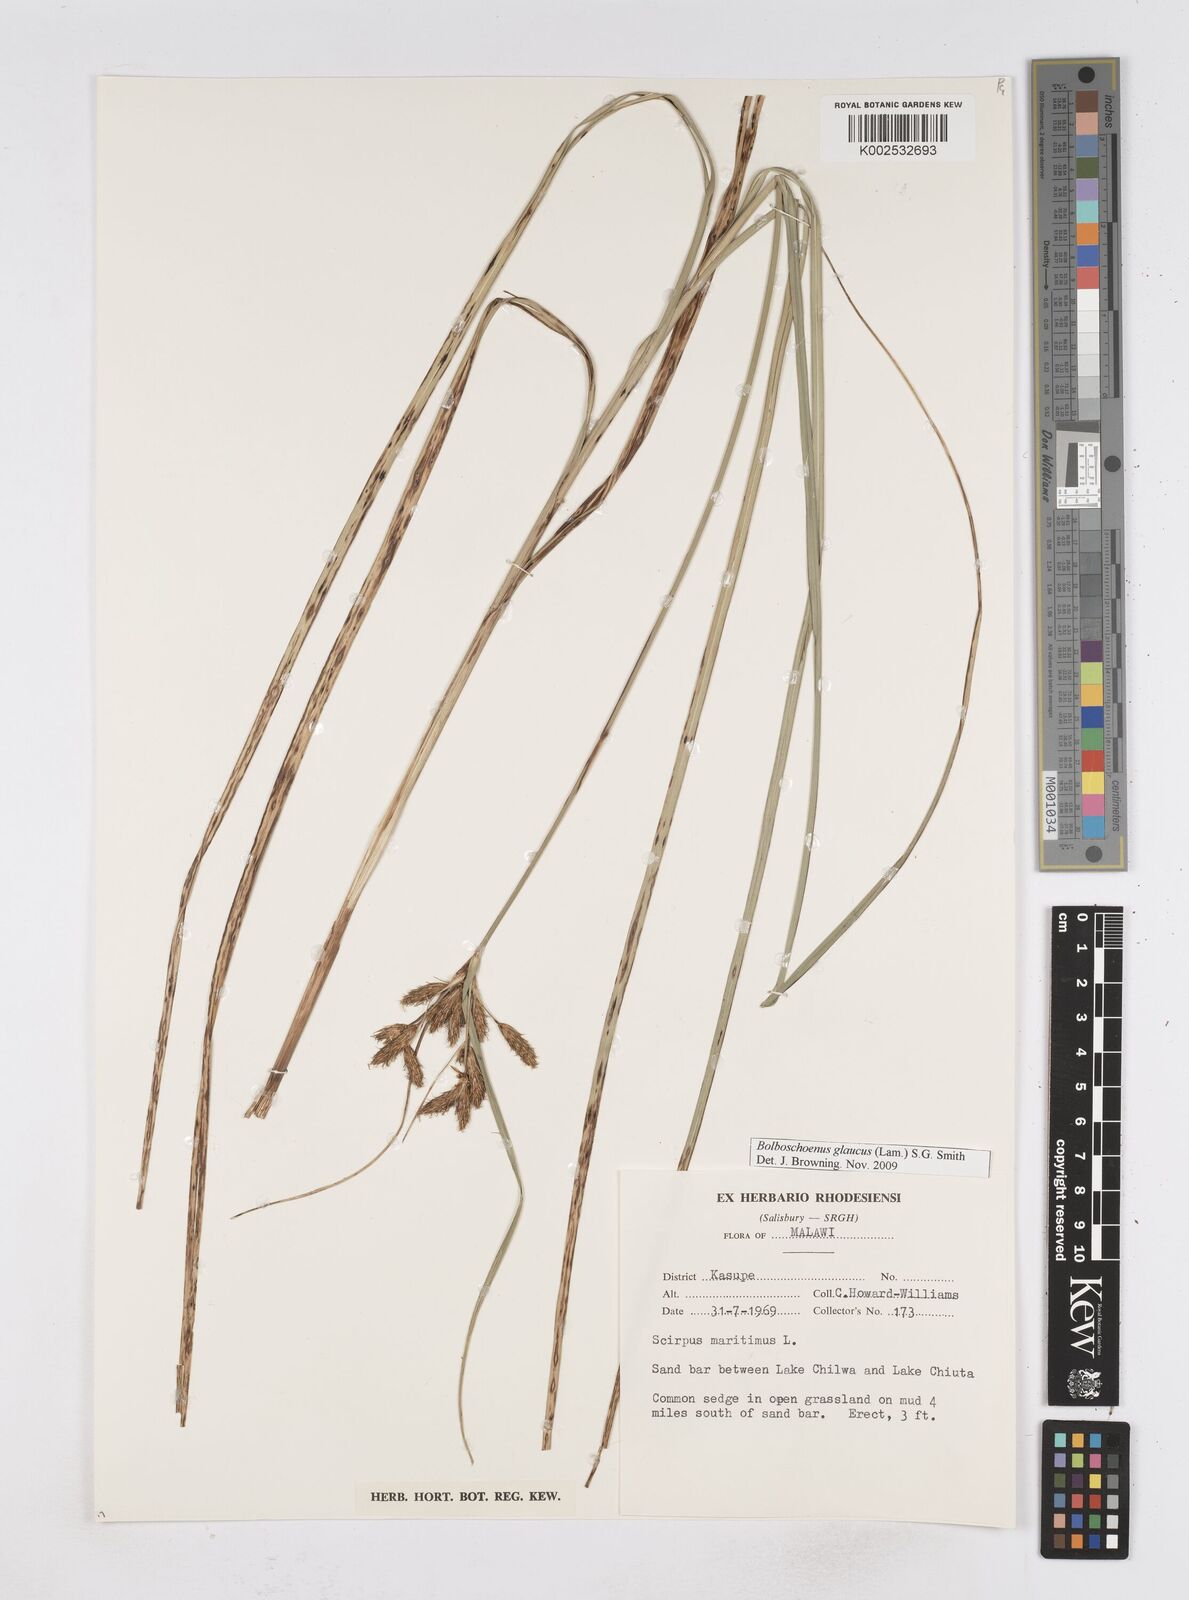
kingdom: Plantae
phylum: Tracheophyta
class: Liliopsida
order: Poales
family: Cyperaceae
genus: Bolboschoenus
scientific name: Bolboschoenus glaucus
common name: Tuberous bulrush
